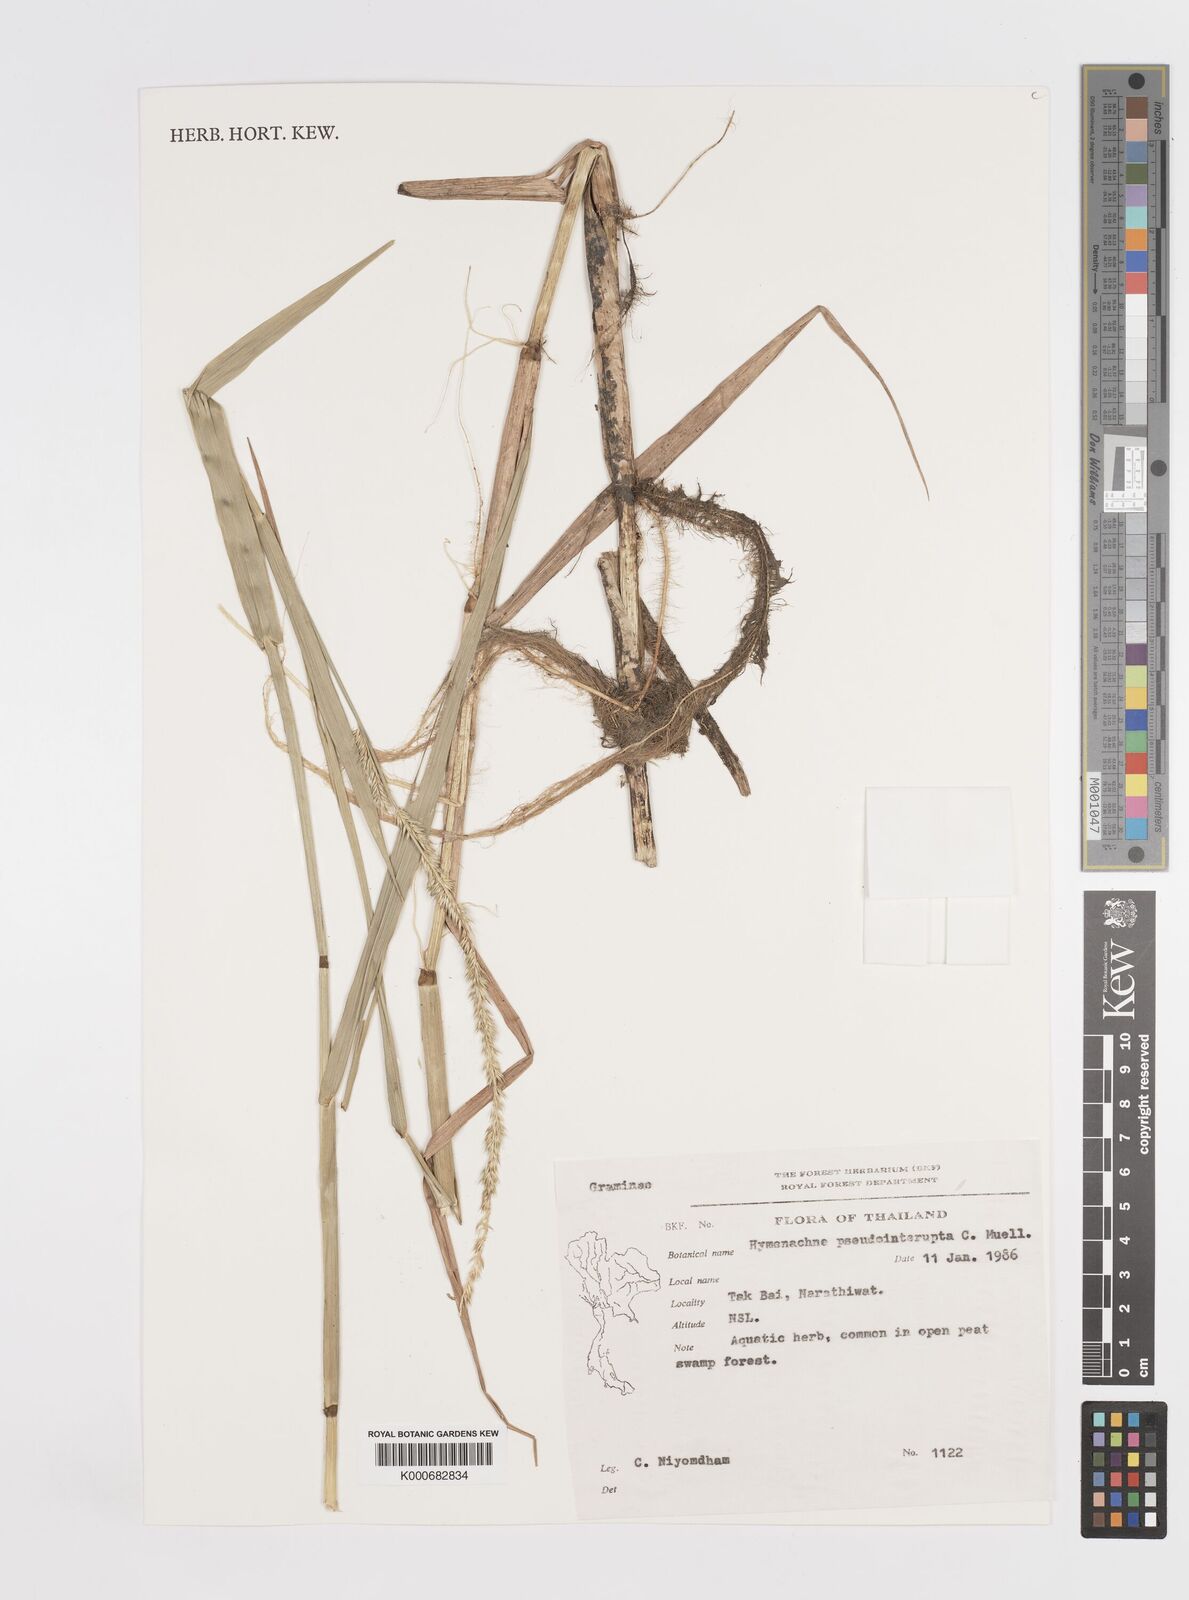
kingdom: Plantae
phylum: Tracheophyta
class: Liliopsida
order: Poales
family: Poaceae
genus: Hymenachne
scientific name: Hymenachne amplexicaulis
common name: Olive hymenachne
